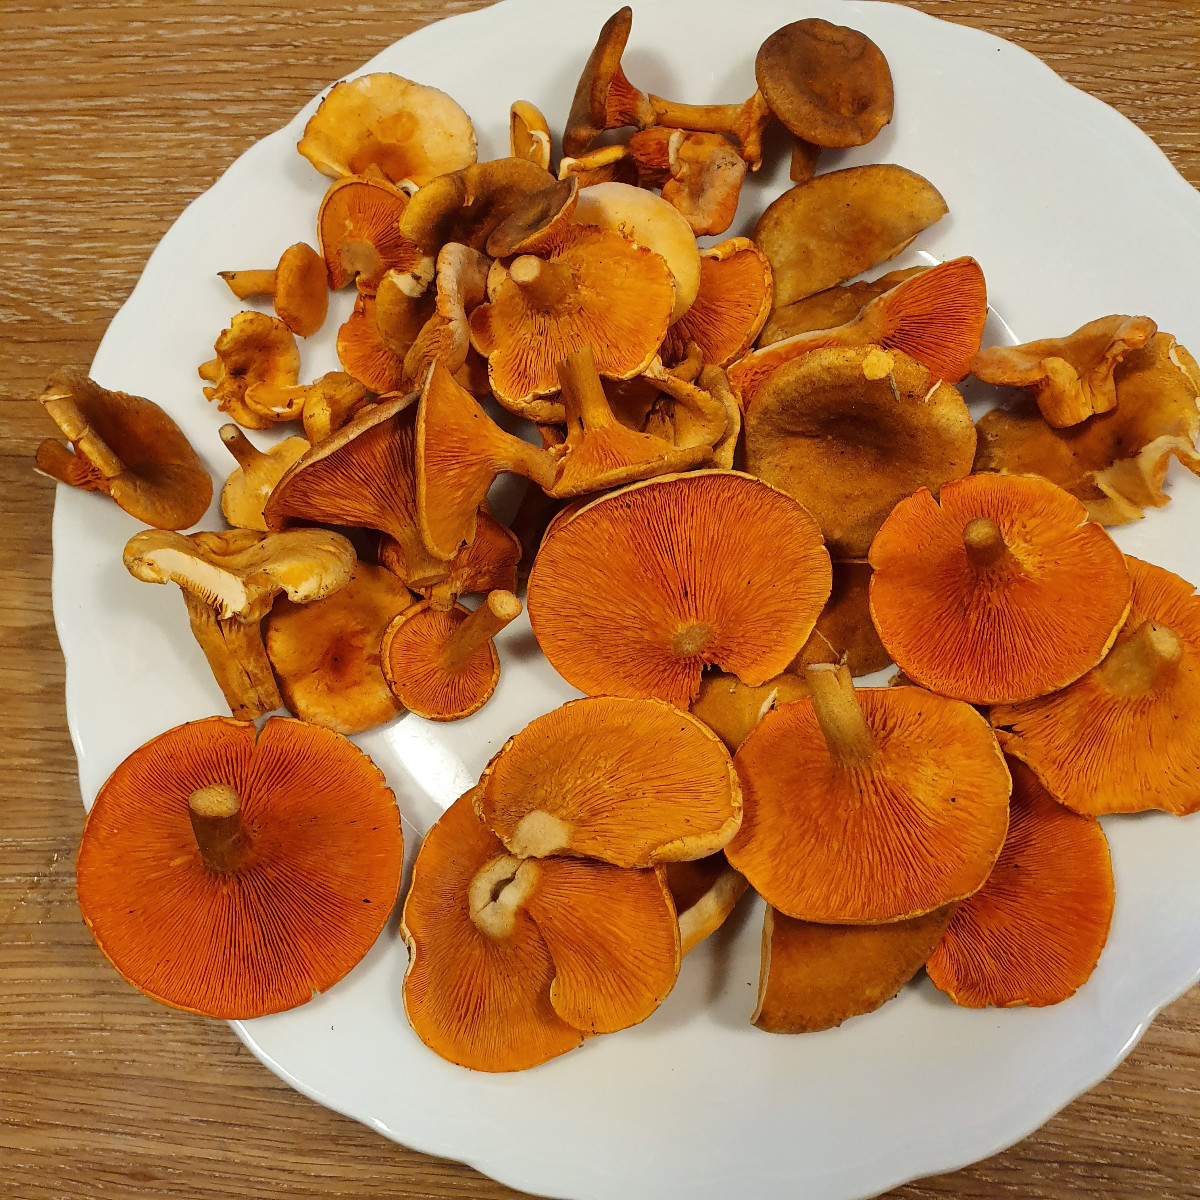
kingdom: Fungi
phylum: Basidiomycota
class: Agaricomycetes
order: Boletales
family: Hygrophoropsidaceae
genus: Hygrophoropsis
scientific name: Hygrophoropsis aurantiaca
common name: almindelig orangekantarel
